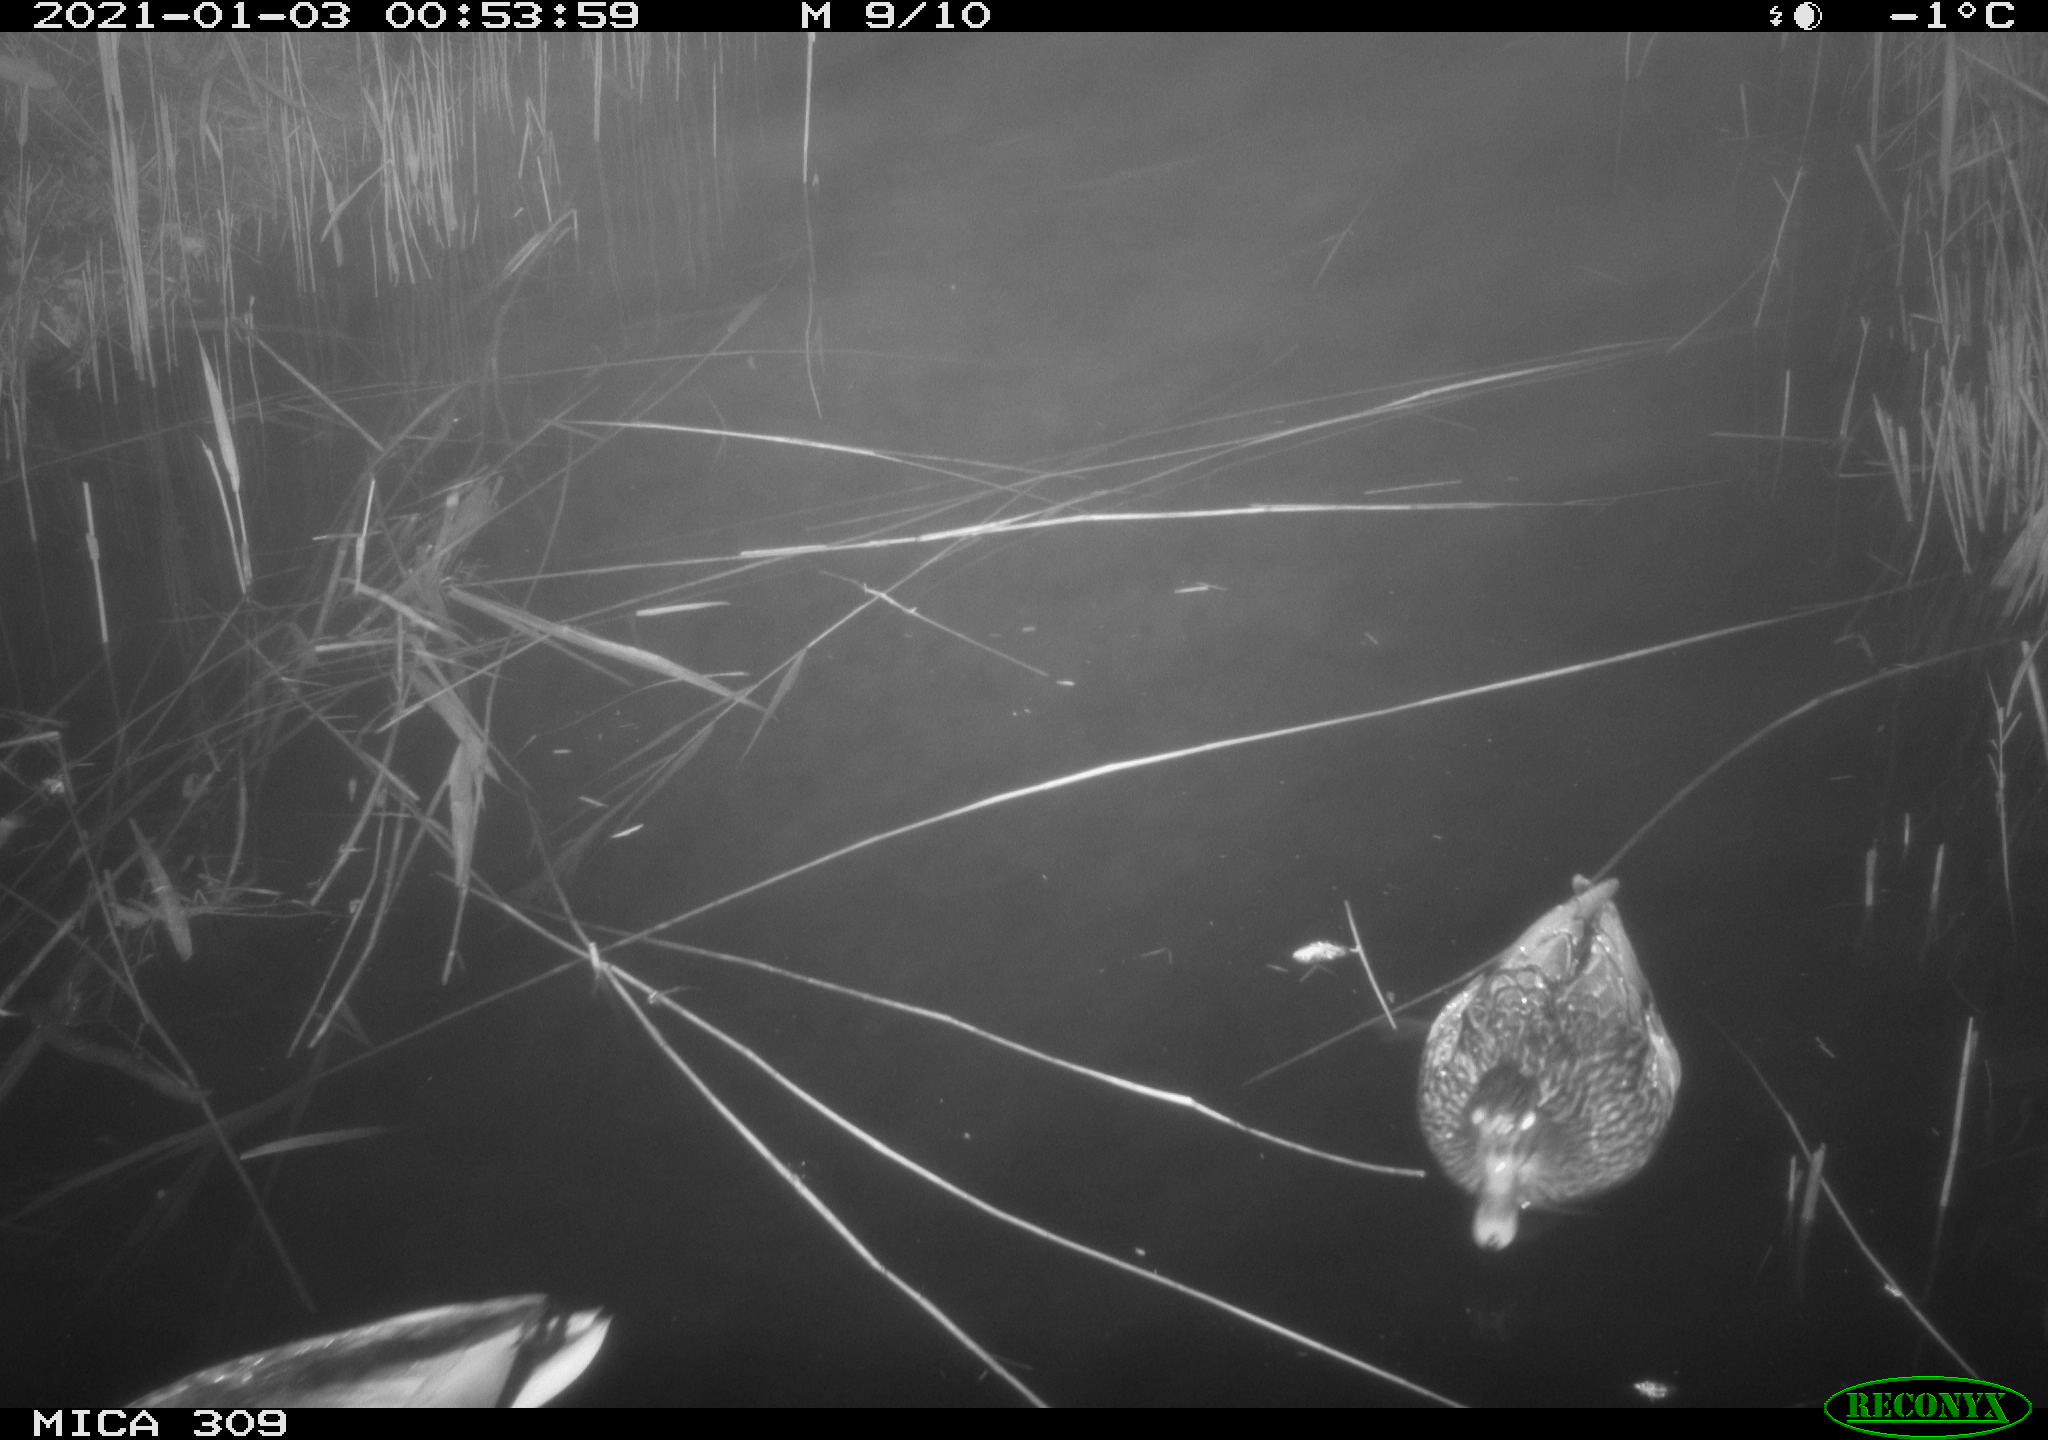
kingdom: Animalia
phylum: Chordata
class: Aves
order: Anseriformes
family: Anatidae
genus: Anas
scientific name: Anas platyrhynchos
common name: Mallard
